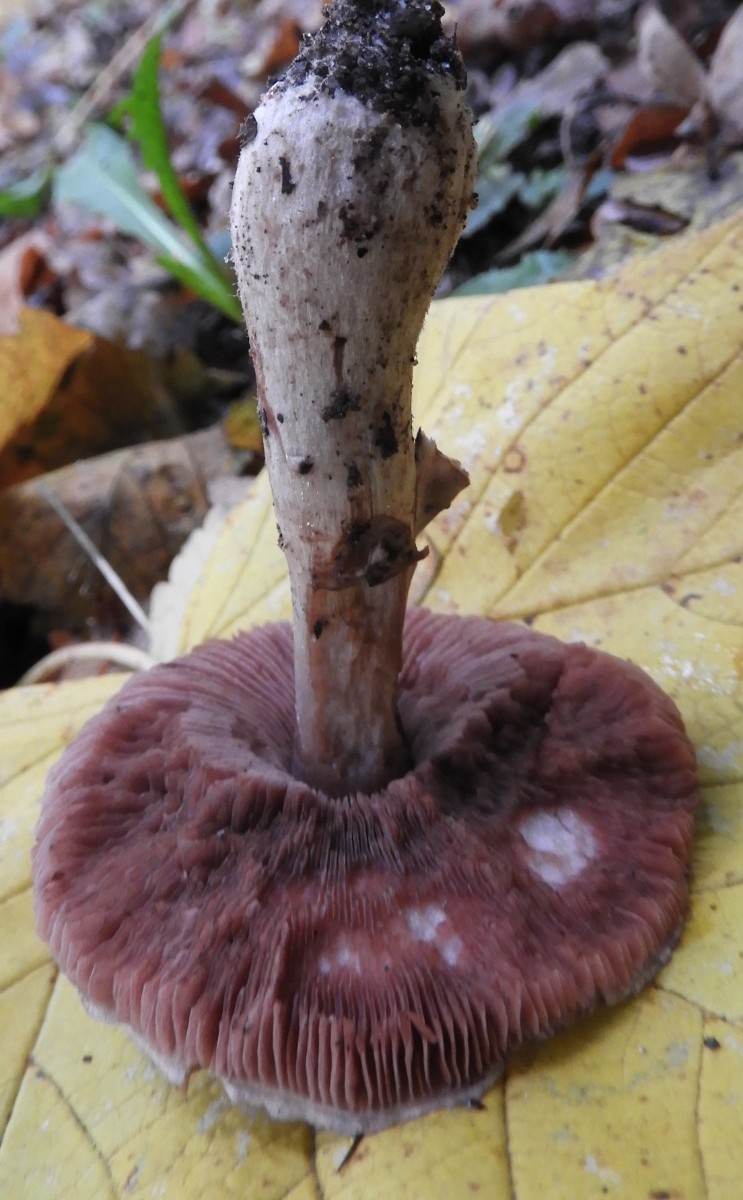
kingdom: Fungi
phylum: Basidiomycota
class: Agaricomycetes
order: Agaricales
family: Agaricaceae
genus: Agaricus
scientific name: Agaricus
